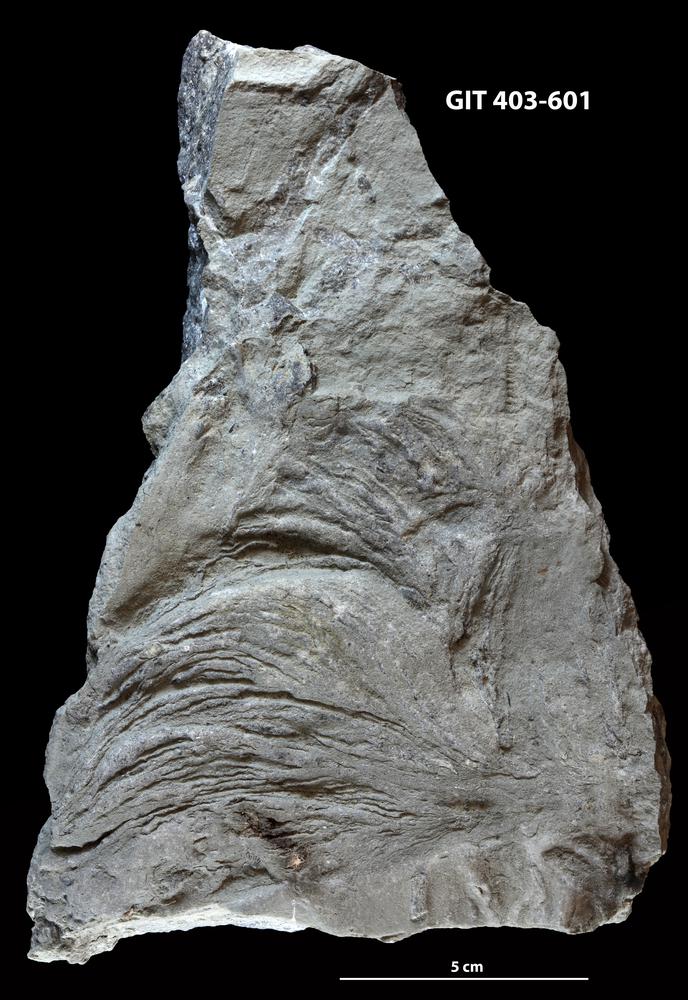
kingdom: Chromista
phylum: Ochrophyta
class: Phaeophyceae
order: Laminariales
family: Laminariaceae
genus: Postelsiopsis
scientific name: Postelsiopsis
